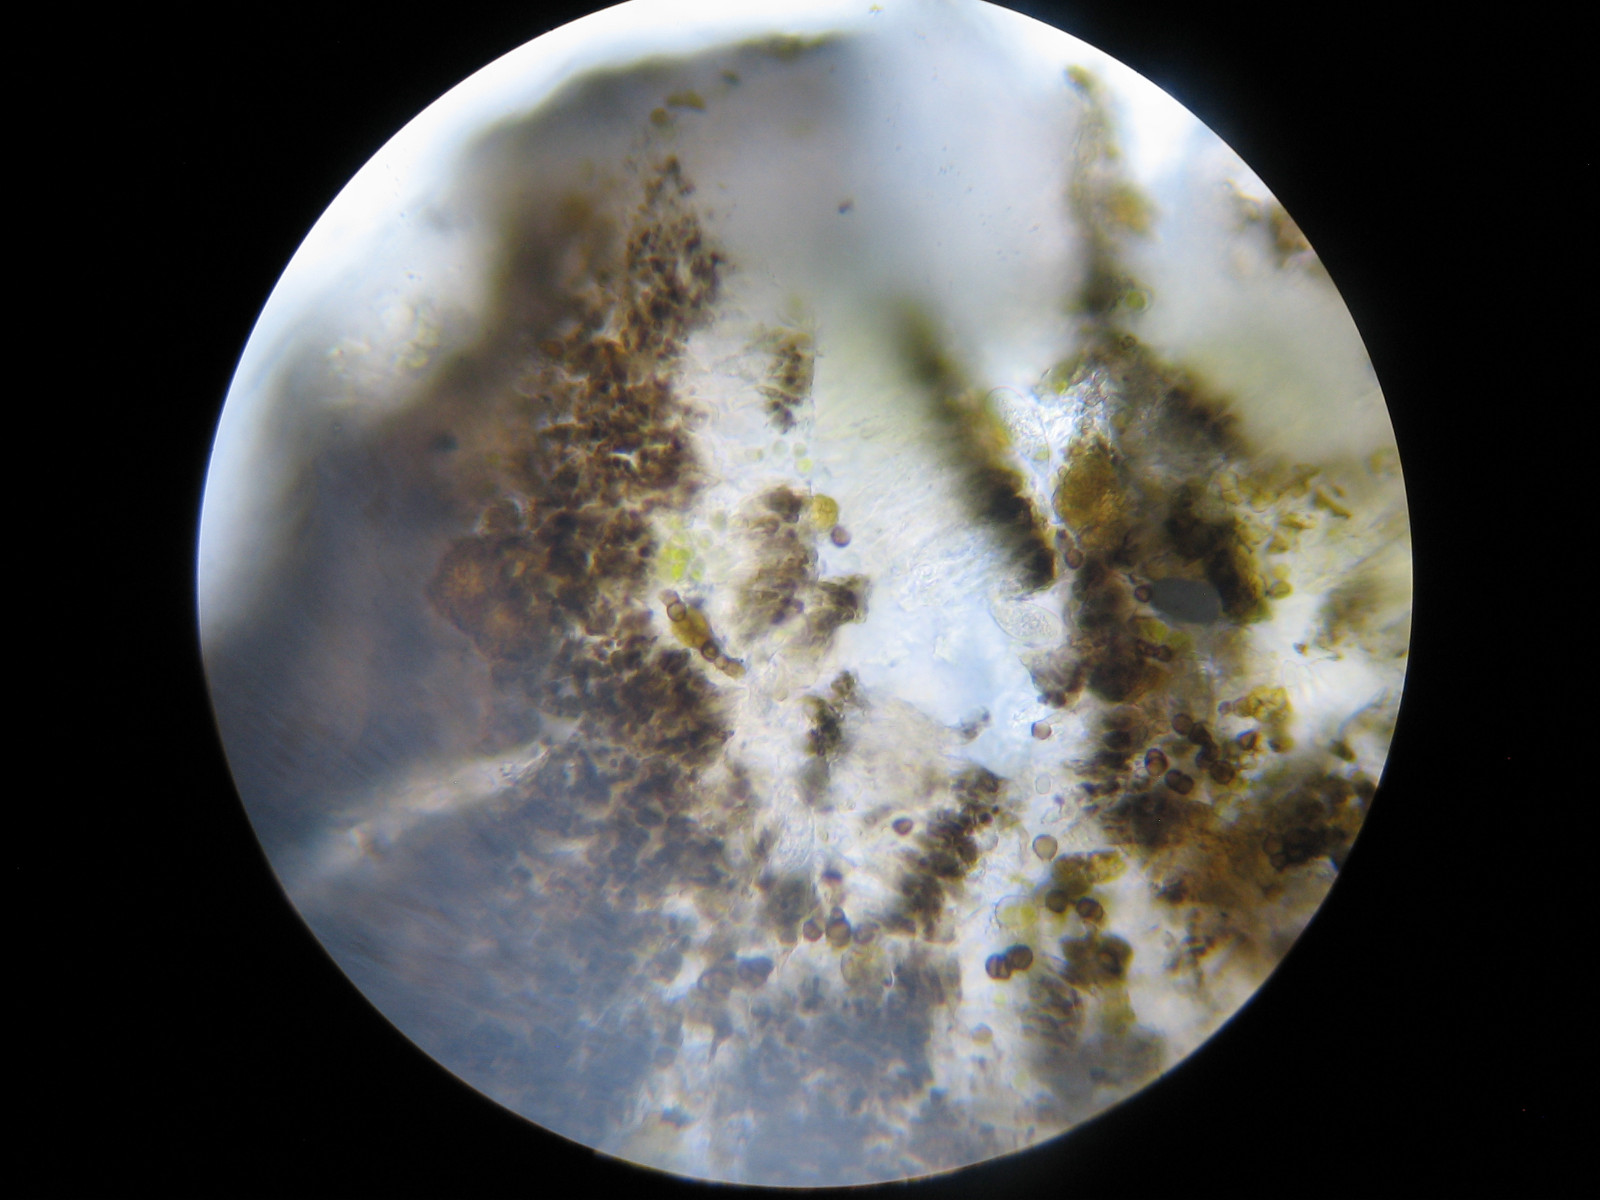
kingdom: Fungi
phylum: Ascomycota
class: Arthoniomycetes
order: Arthoniales
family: Arthoniaceae
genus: Bryostigma
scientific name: Bryostigma apotheciorum
